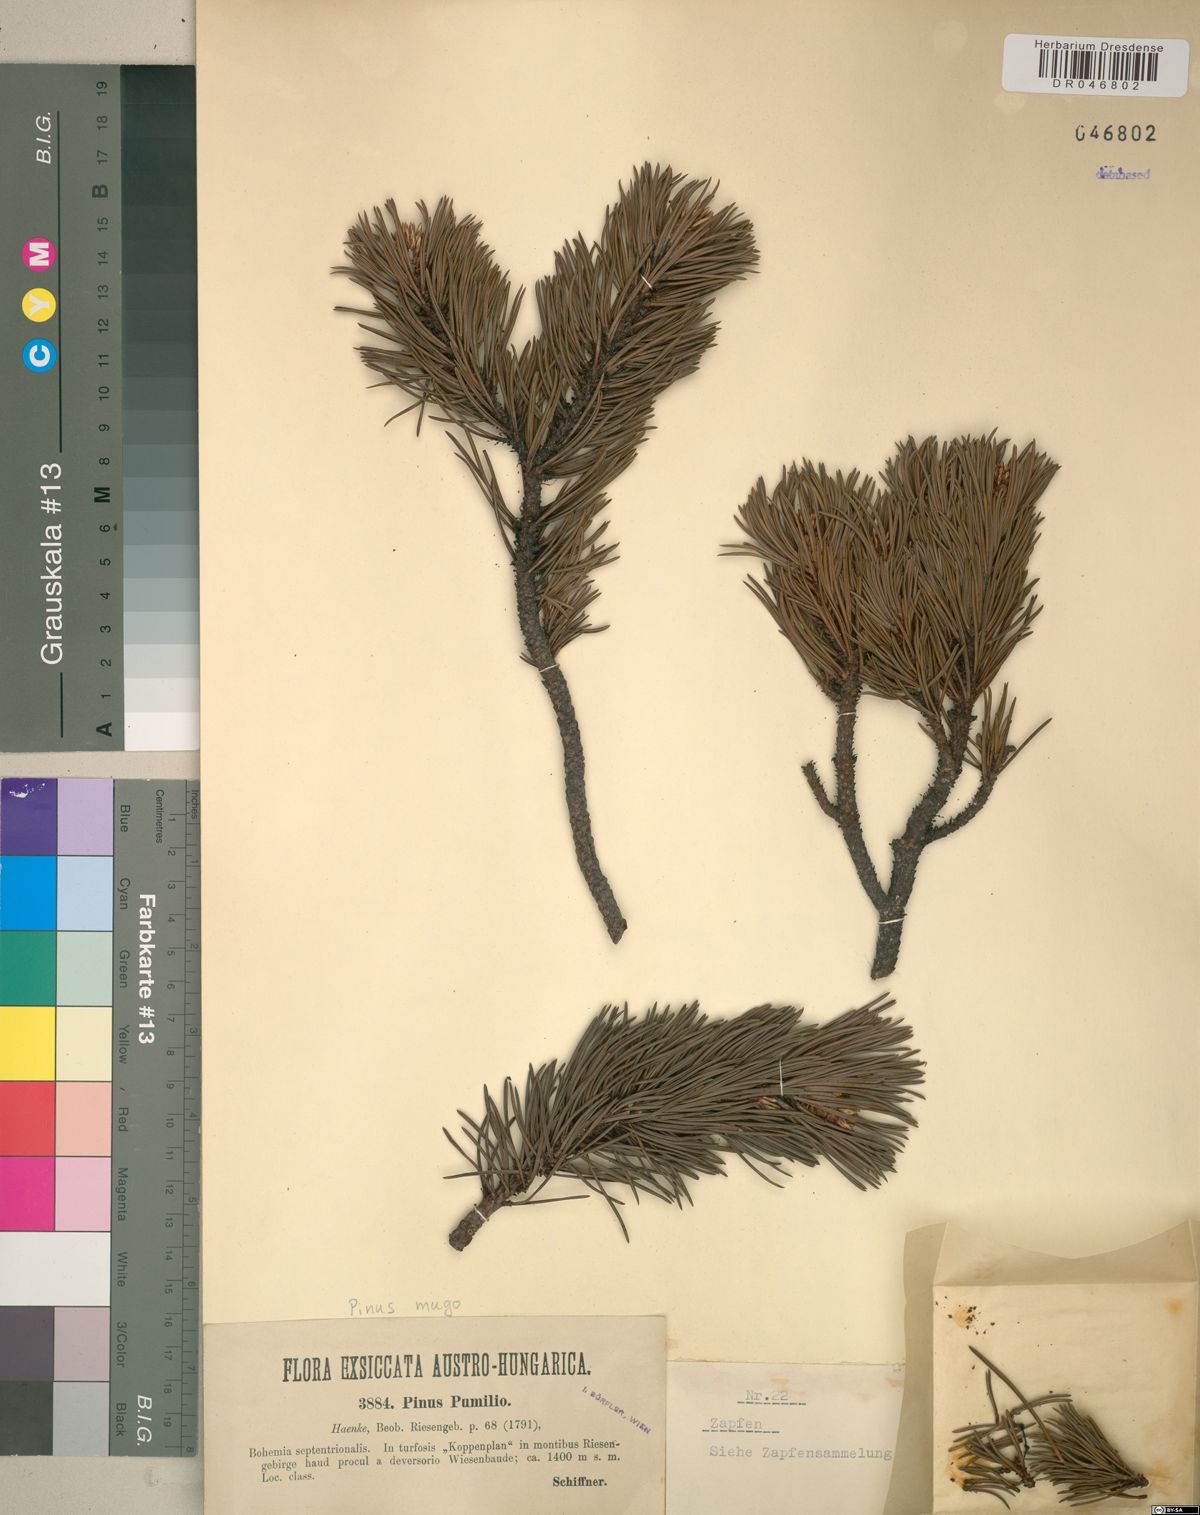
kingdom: Plantae
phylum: Tracheophyta
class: Pinopsida
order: Pinales
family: Pinaceae
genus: Pinus
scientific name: Pinus mugo
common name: Mugo pine
